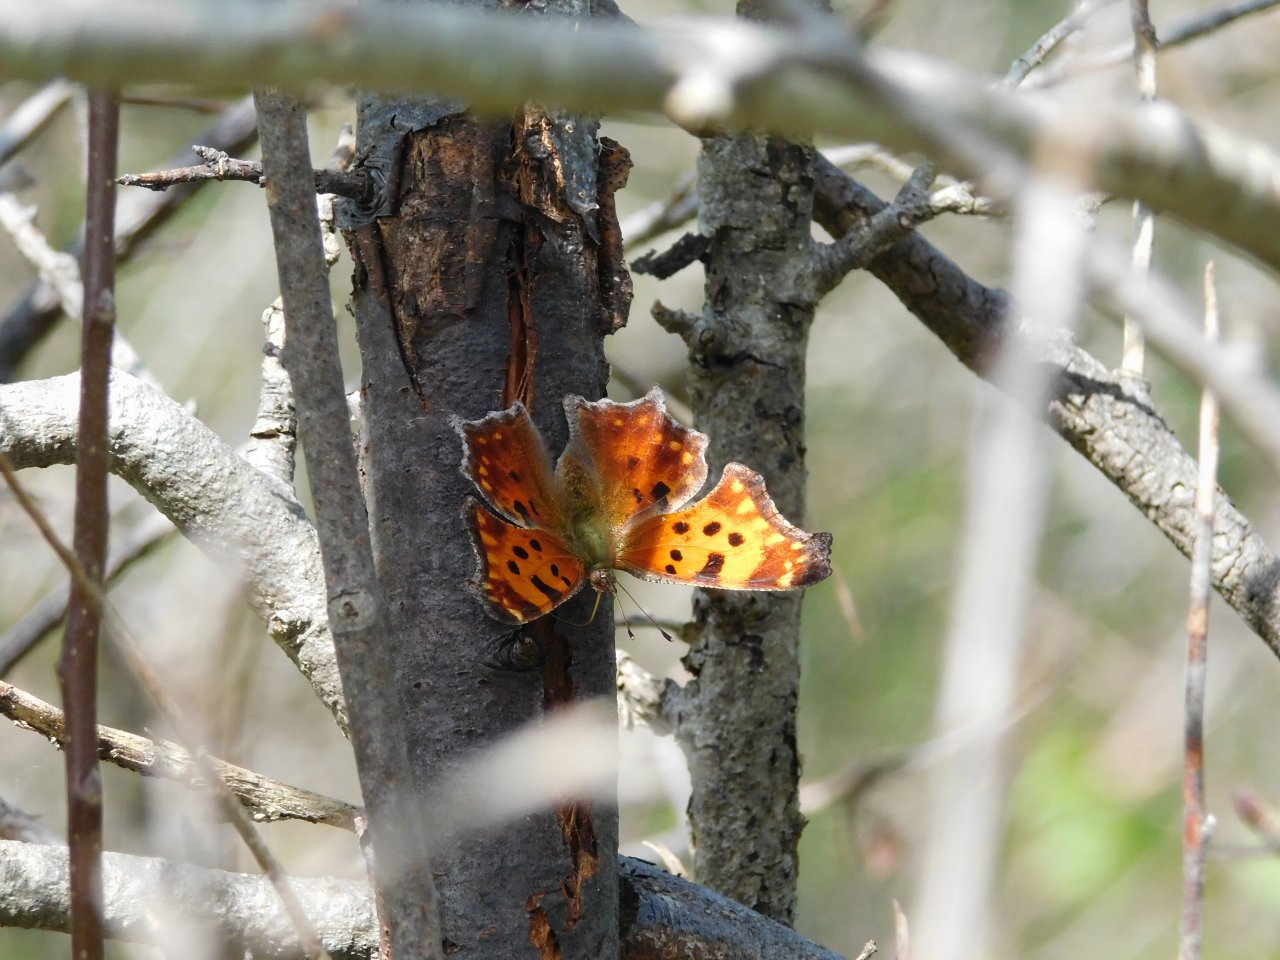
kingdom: Animalia
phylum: Arthropoda
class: Insecta
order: Lepidoptera
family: Nymphalidae
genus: Polygonia
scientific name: Polygonia comma
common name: Eastern Comma
